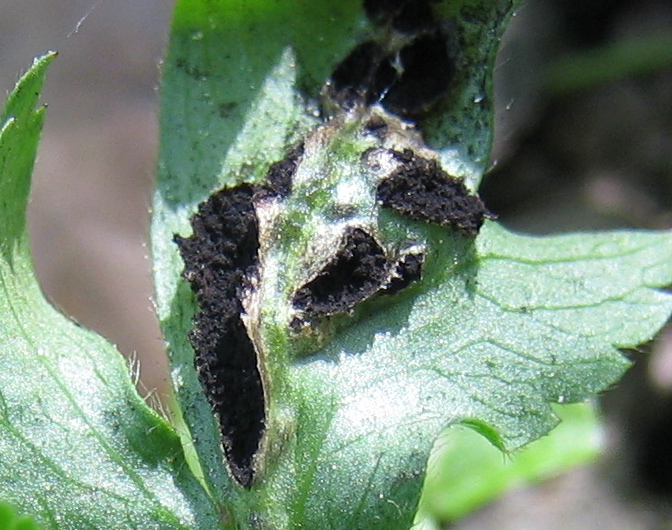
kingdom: Fungi
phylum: Basidiomycota
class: Ustilaginomycetes
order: Urocystidales
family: Urocystidaceae
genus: Urocystis
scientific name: Urocystis anemones
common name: anemone-brand
